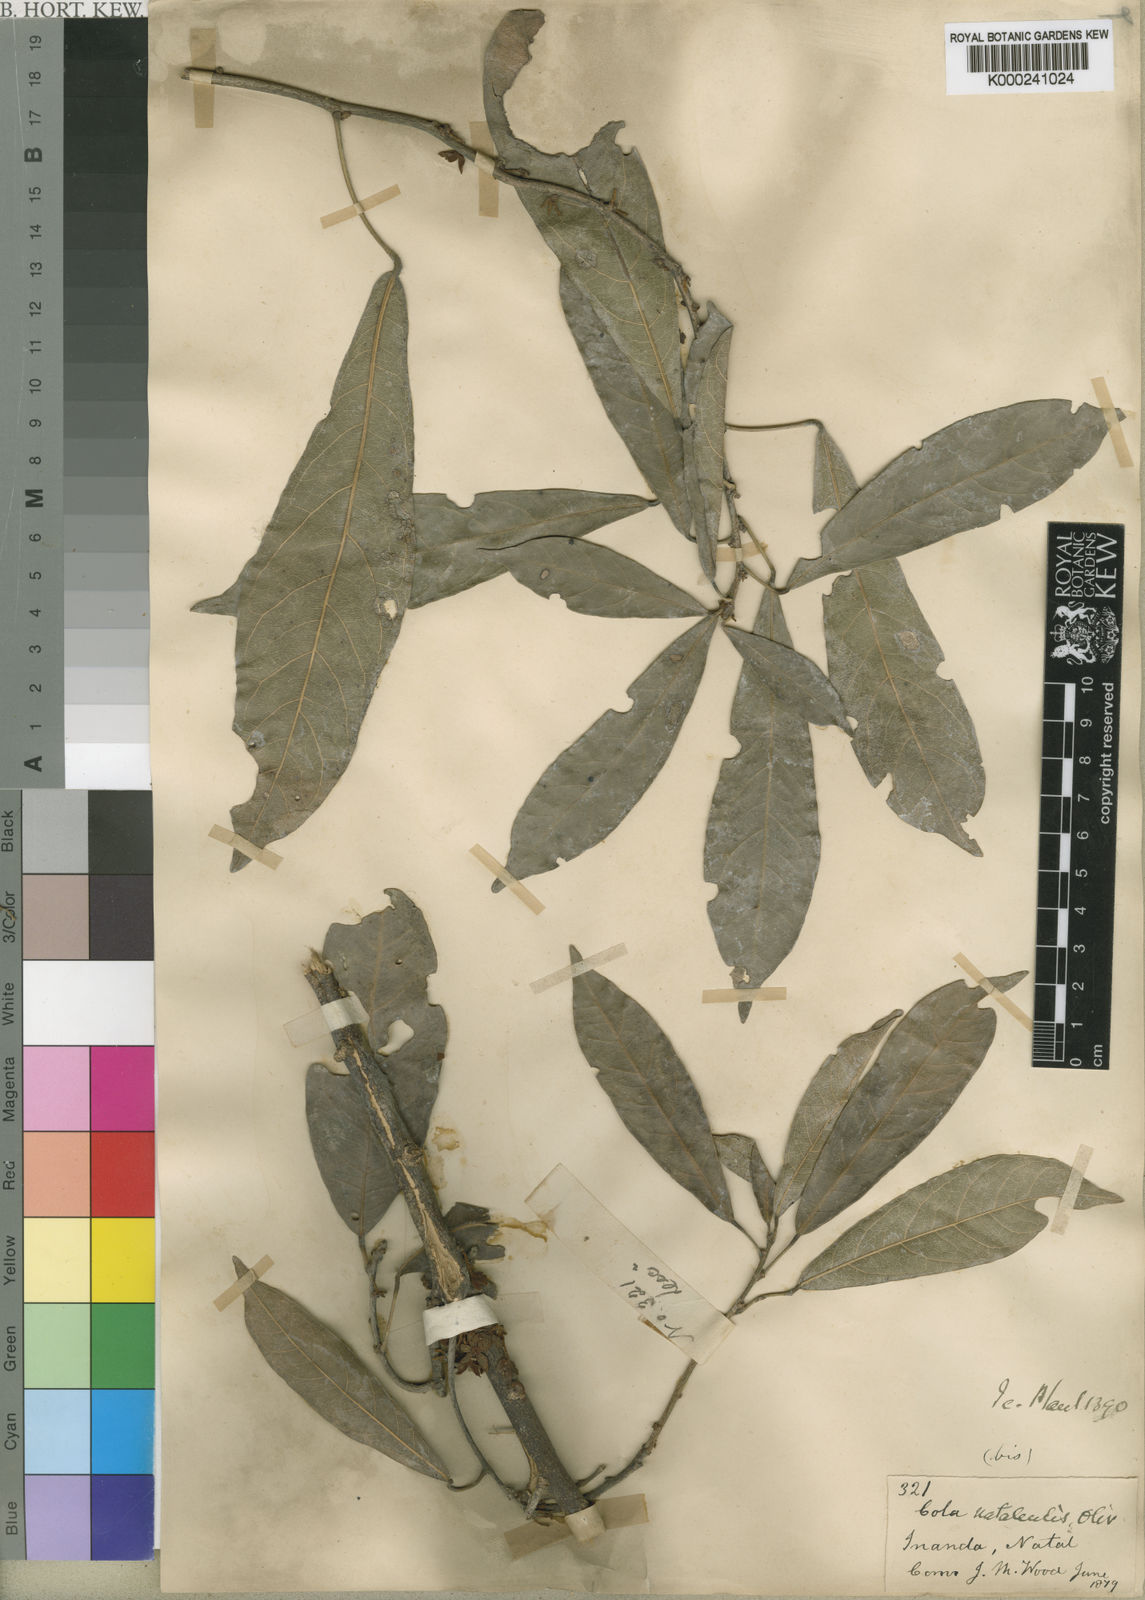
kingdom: Plantae
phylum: Tracheophyta
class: Magnoliopsida
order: Malvales
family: Malvaceae
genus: Cola
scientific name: Cola natalensis
